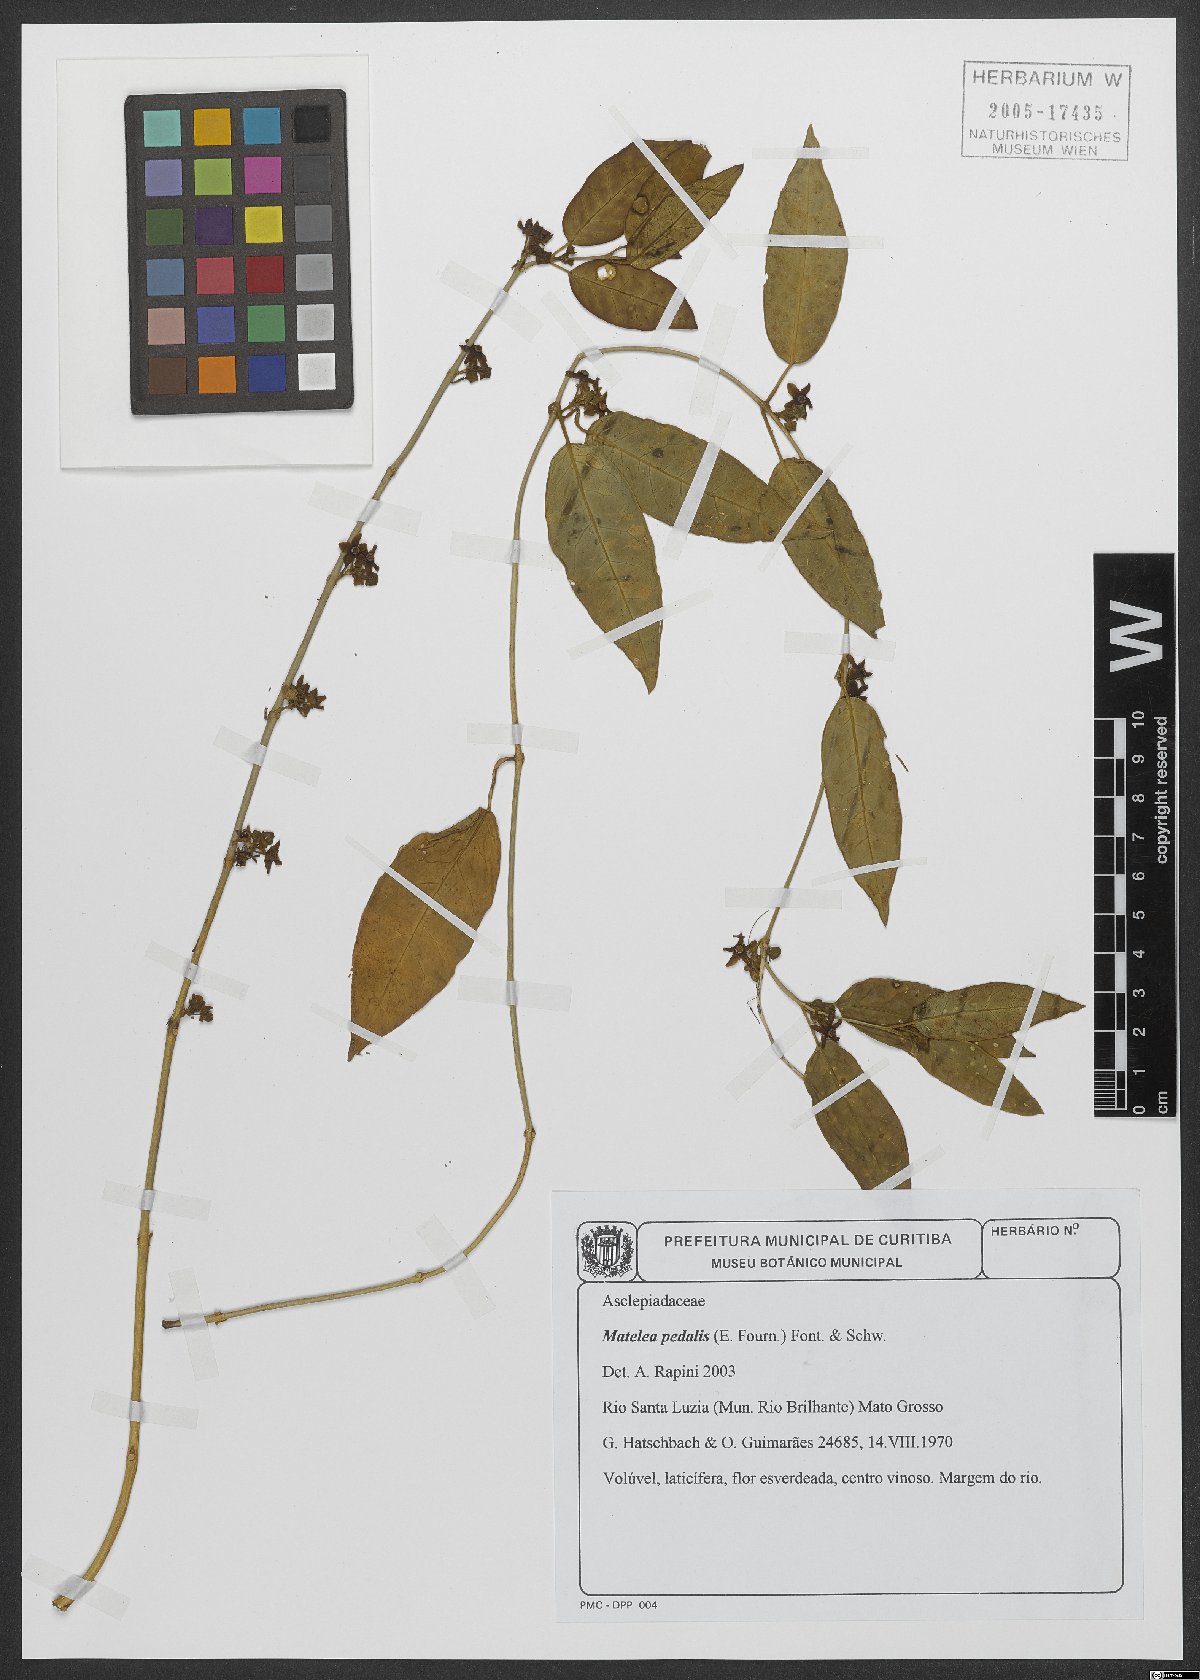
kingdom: Plantae
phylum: Tracheophyta
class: Magnoliopsida
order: Gentianales
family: Apocynaceae
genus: Matelea
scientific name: Matelea pedalis
